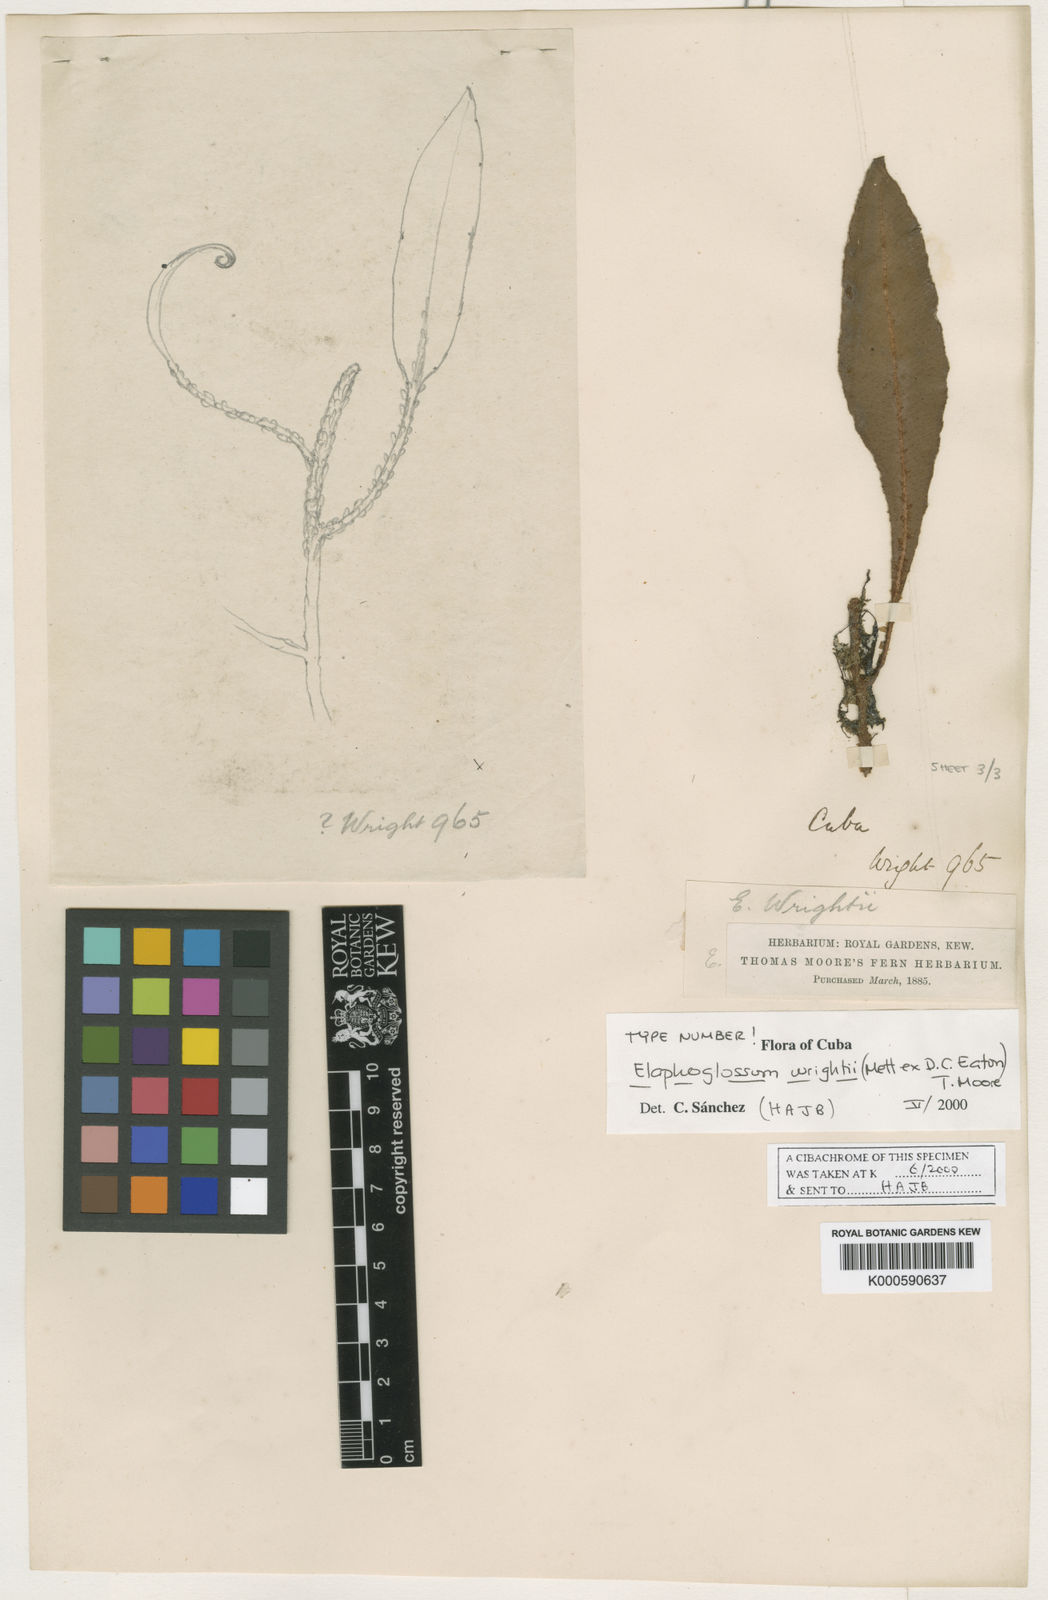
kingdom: Plantae
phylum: Tracheophyta
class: Polypodiopsida
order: Polypodiales
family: Dryopteridaceae
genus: Elaphoglossum
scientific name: Elaphoglossum wrightii
